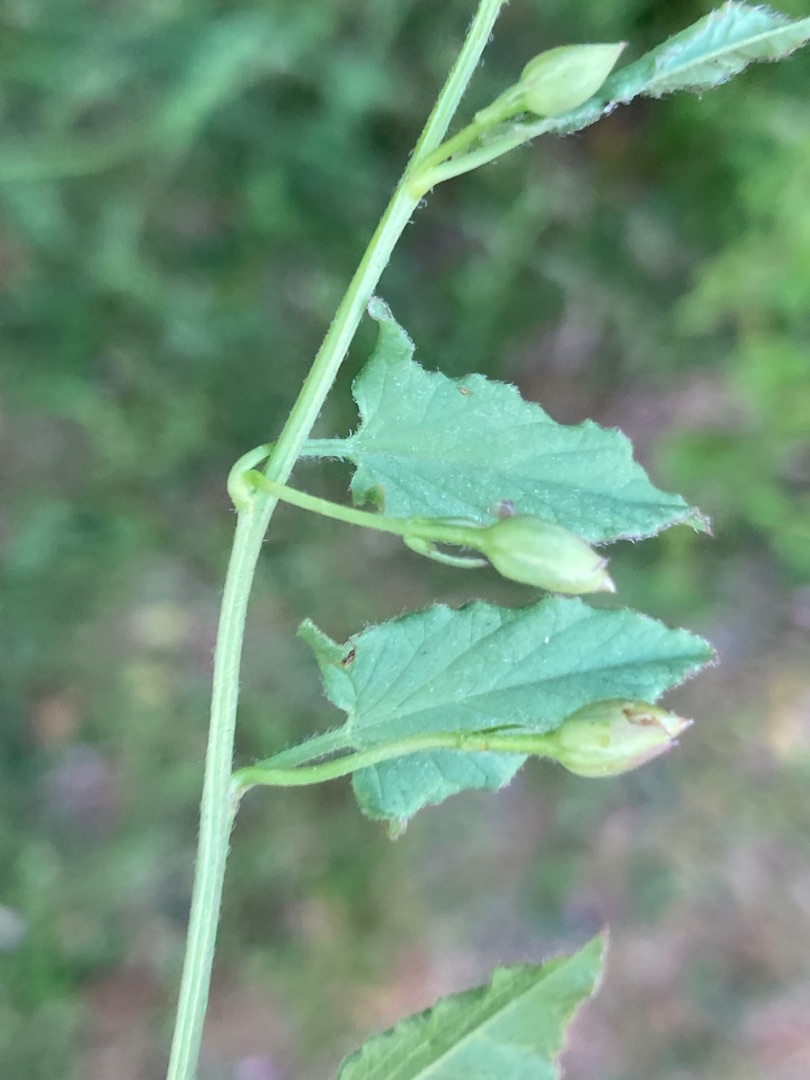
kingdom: Plantae
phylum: Tracheophyta
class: Magnoliopsida
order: Solanales
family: Convolvulaceae
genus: Convolvulus
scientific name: Convolvulus arvensis
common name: Ager-snerle
